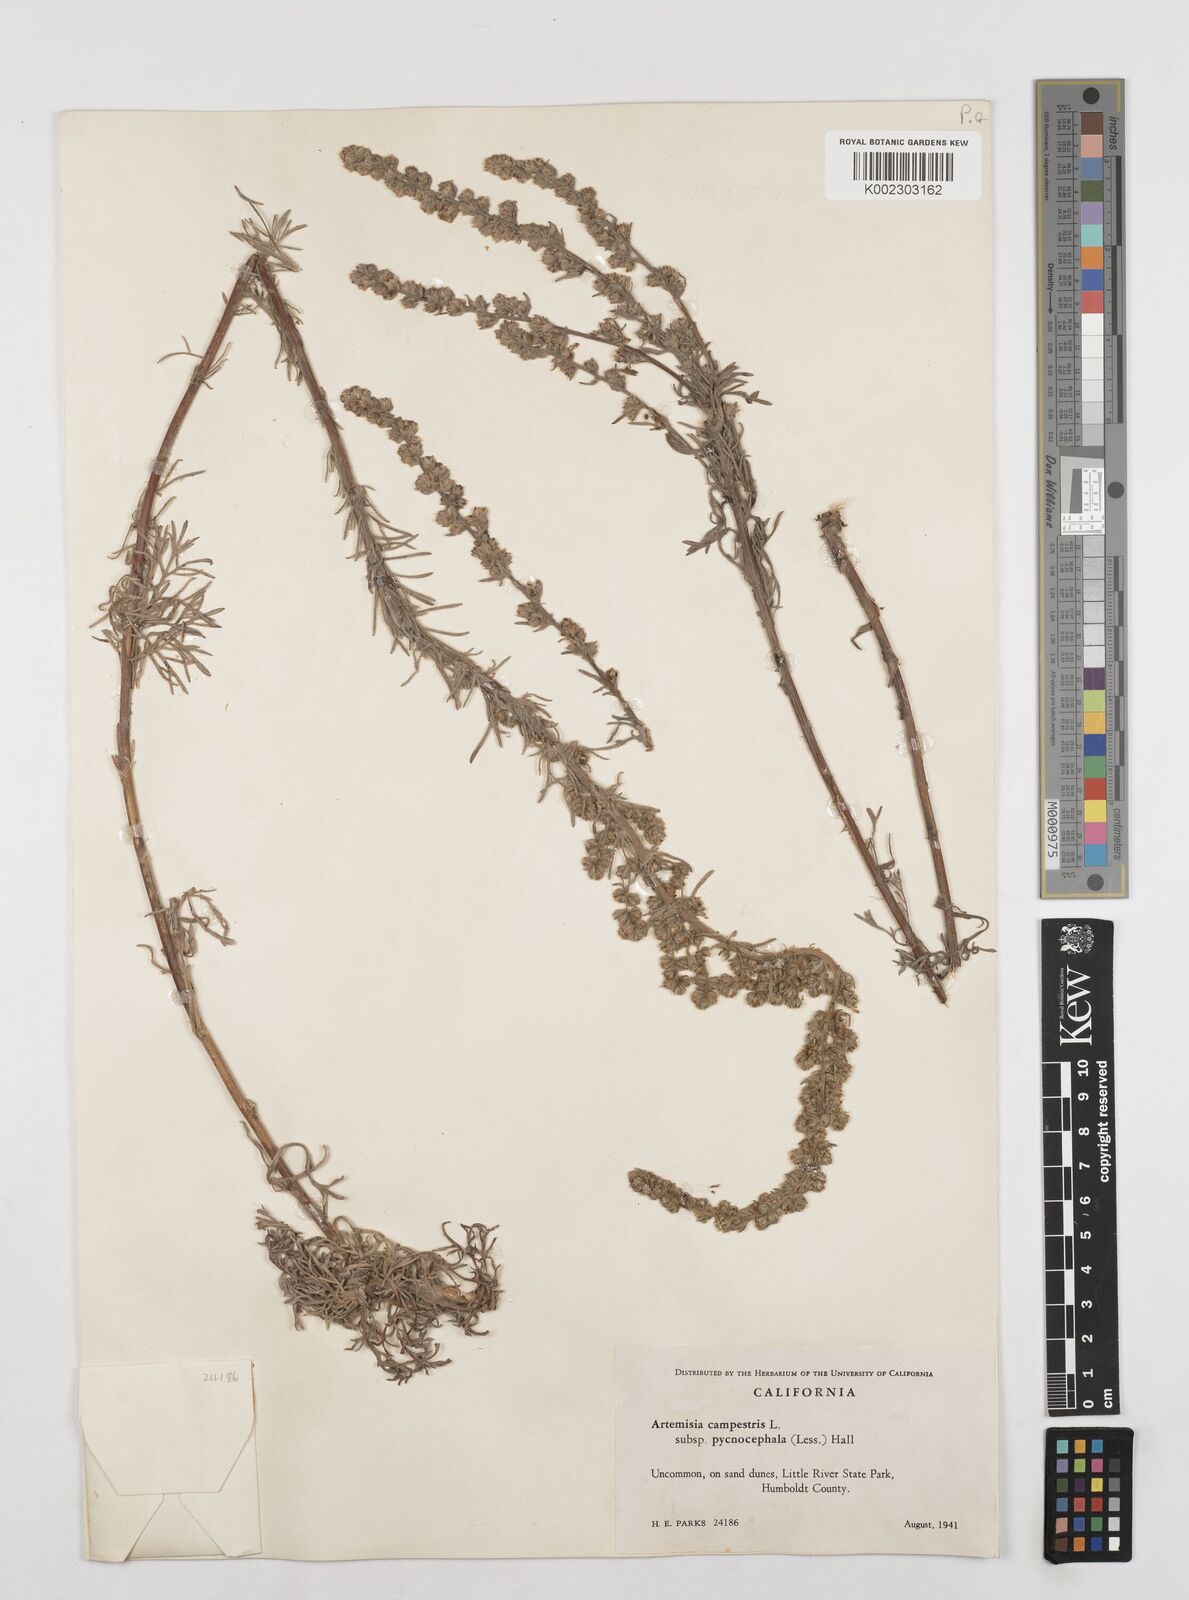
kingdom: Plantae
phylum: Tracheophyta
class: Magnoliopsida
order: Asterales
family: Asteraceae
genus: Artemisia
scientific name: Artemisia pycnocephala
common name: Coastal sagewort
